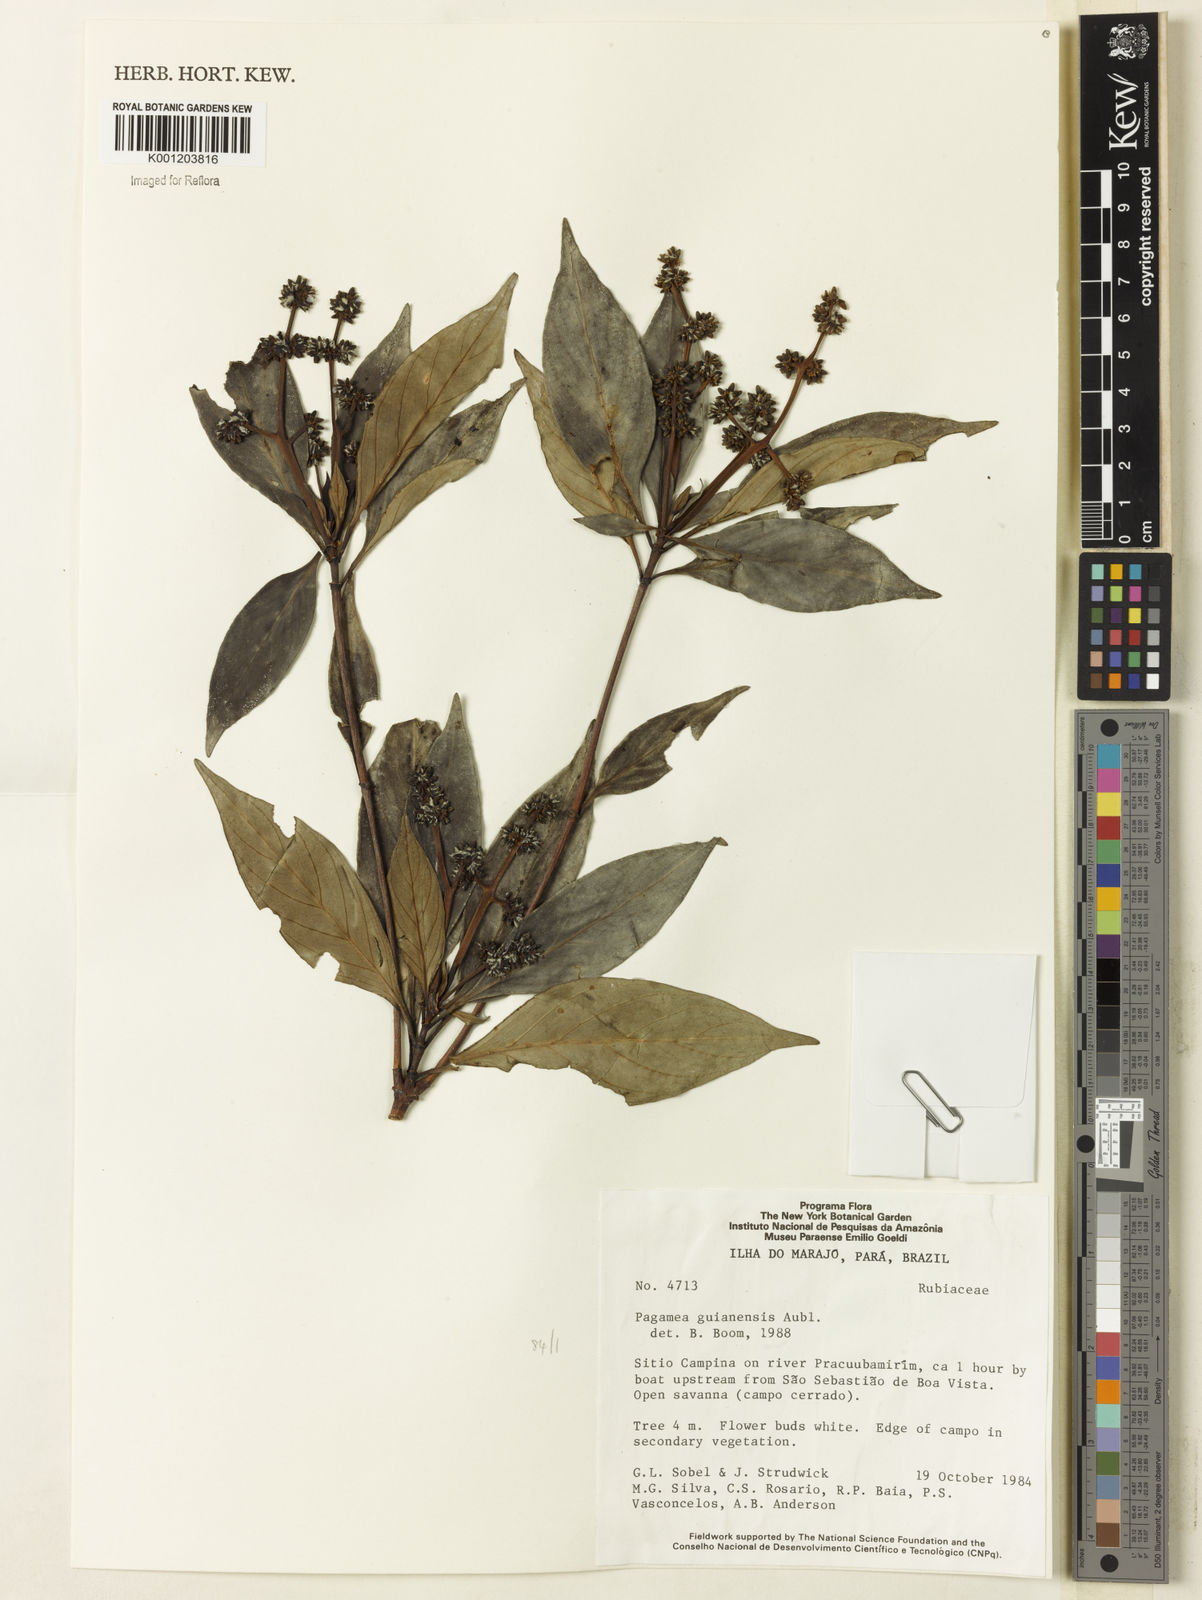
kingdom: Plantae
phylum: Tracheophyta
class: Magnoliopsida
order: Gentianales
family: Rubiaceae
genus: Pagamea
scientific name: Pagamea guianensis
